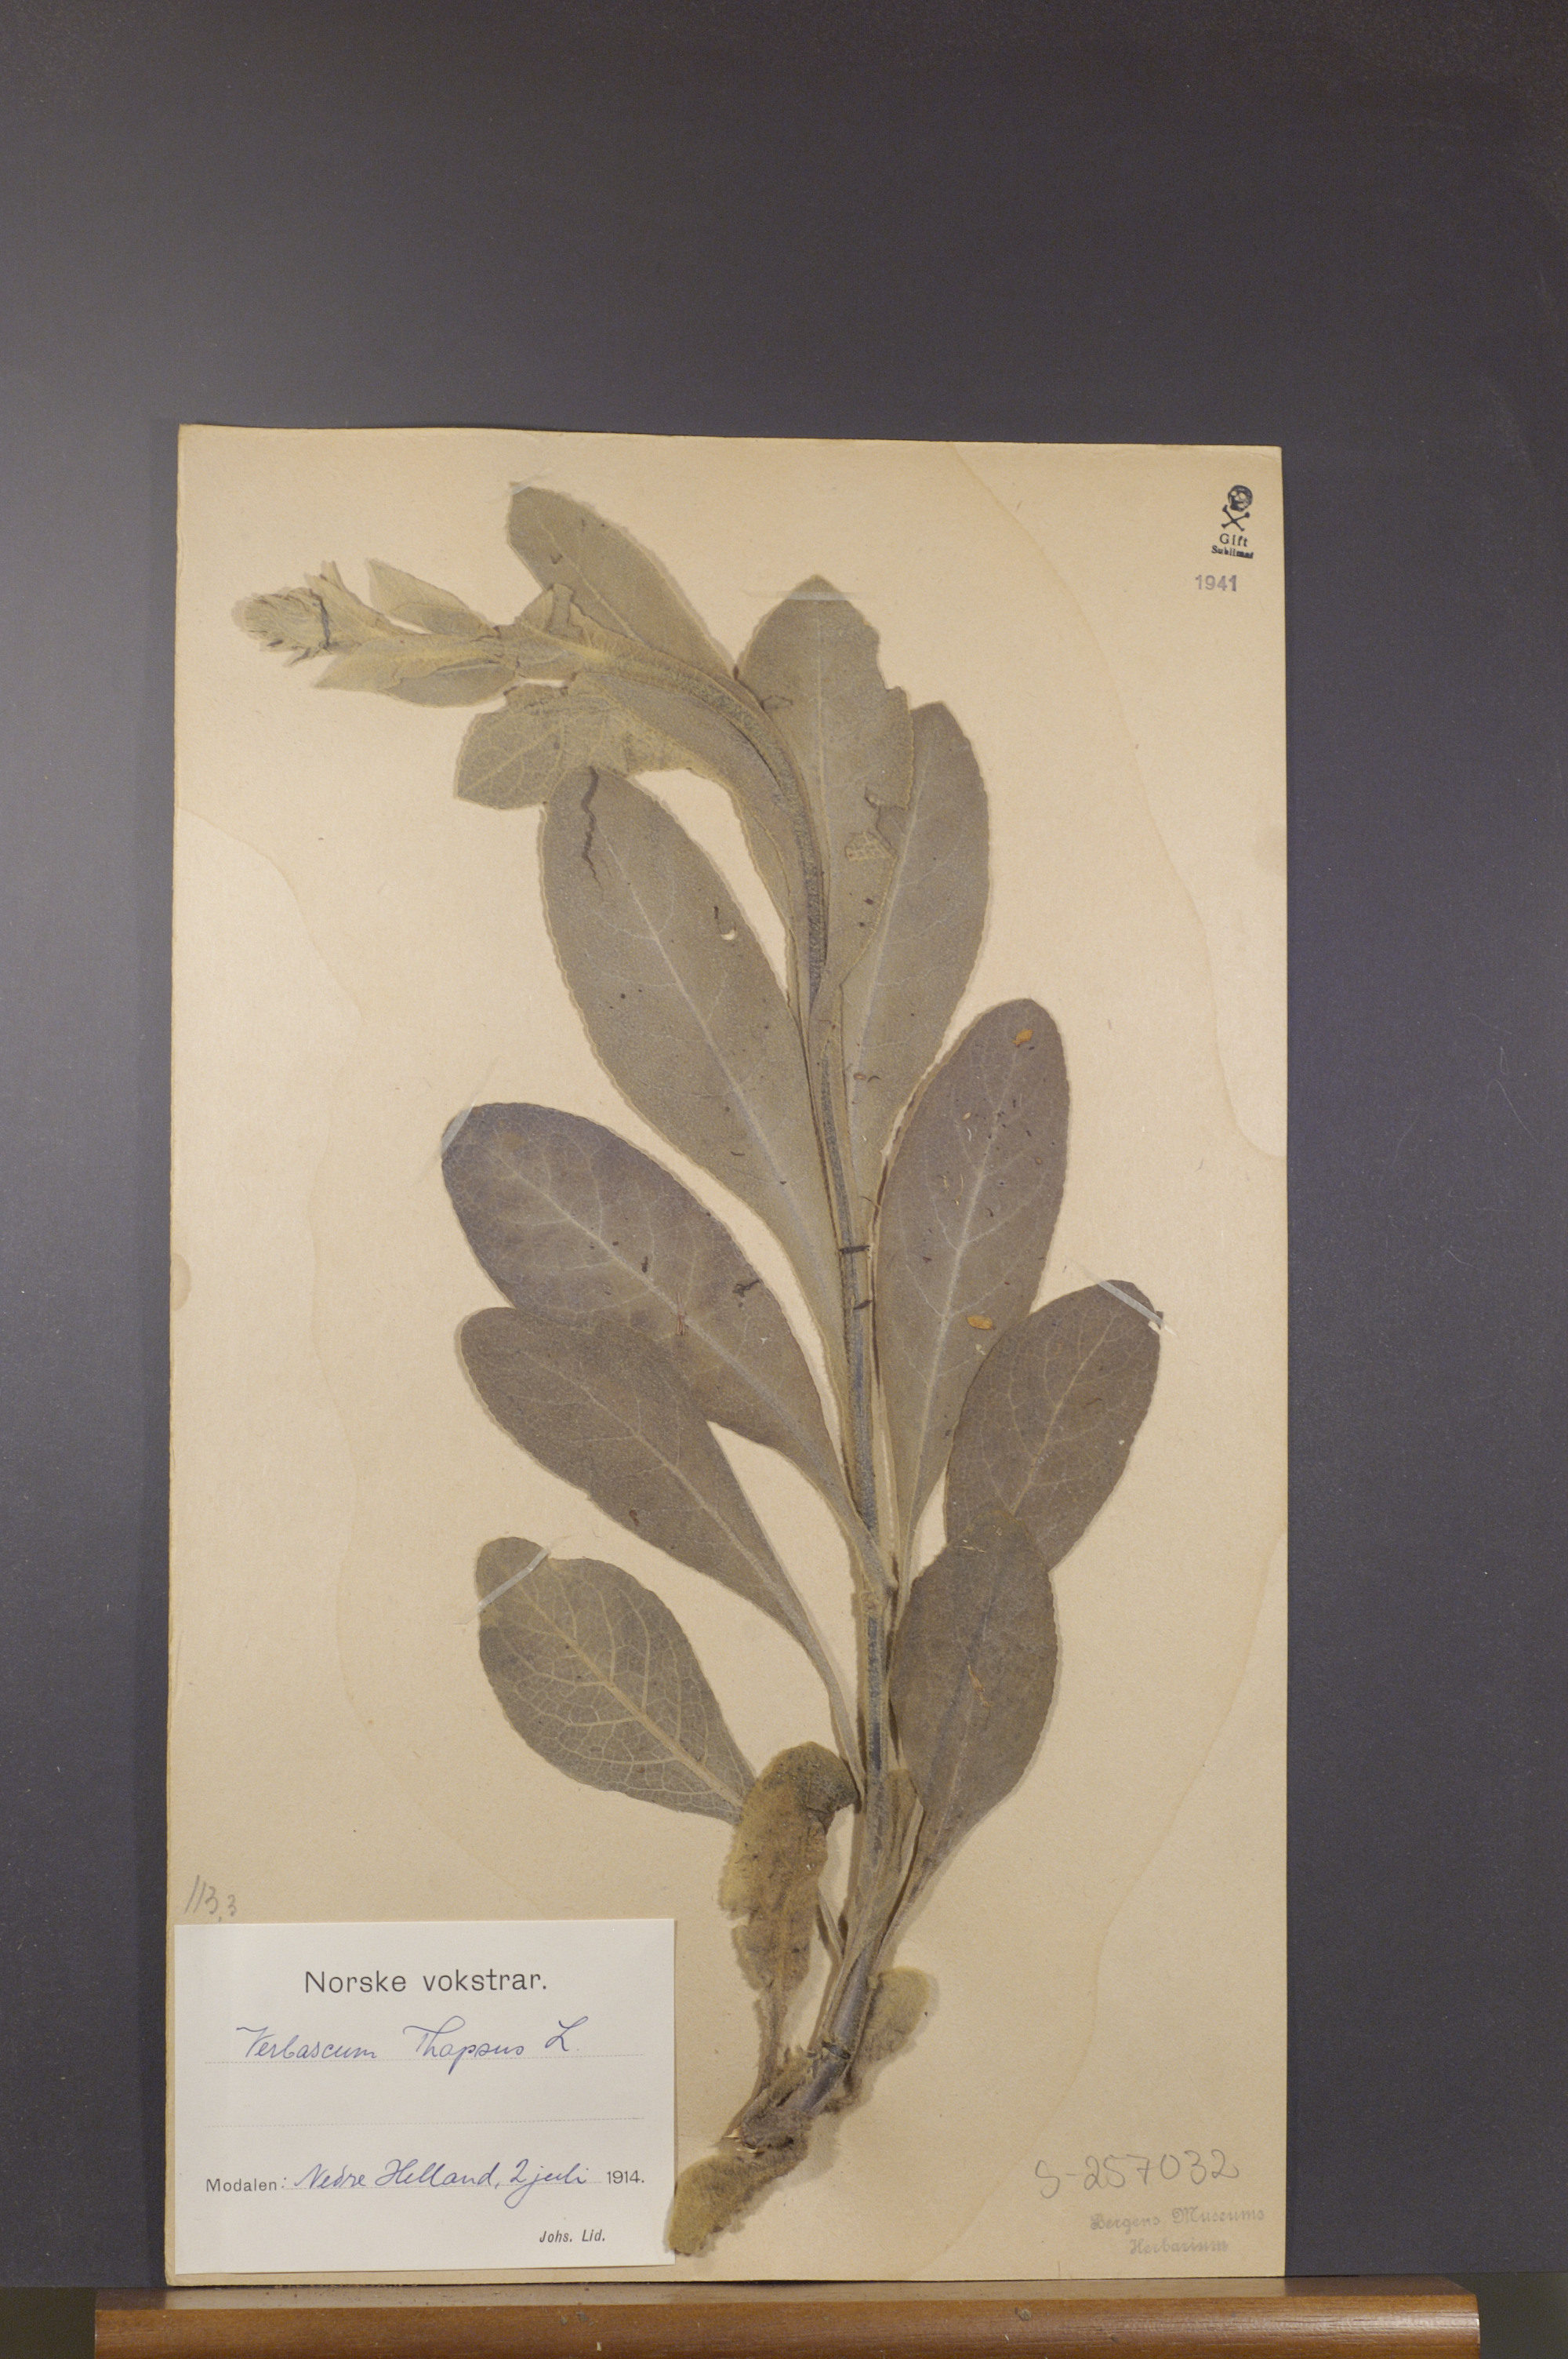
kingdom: Plantae
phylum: Tracheophyta
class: Magnoliopsida
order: Lamiales
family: Scrophulariaceae
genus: Verbascum
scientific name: Verbascum thapsus
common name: Common mullein
